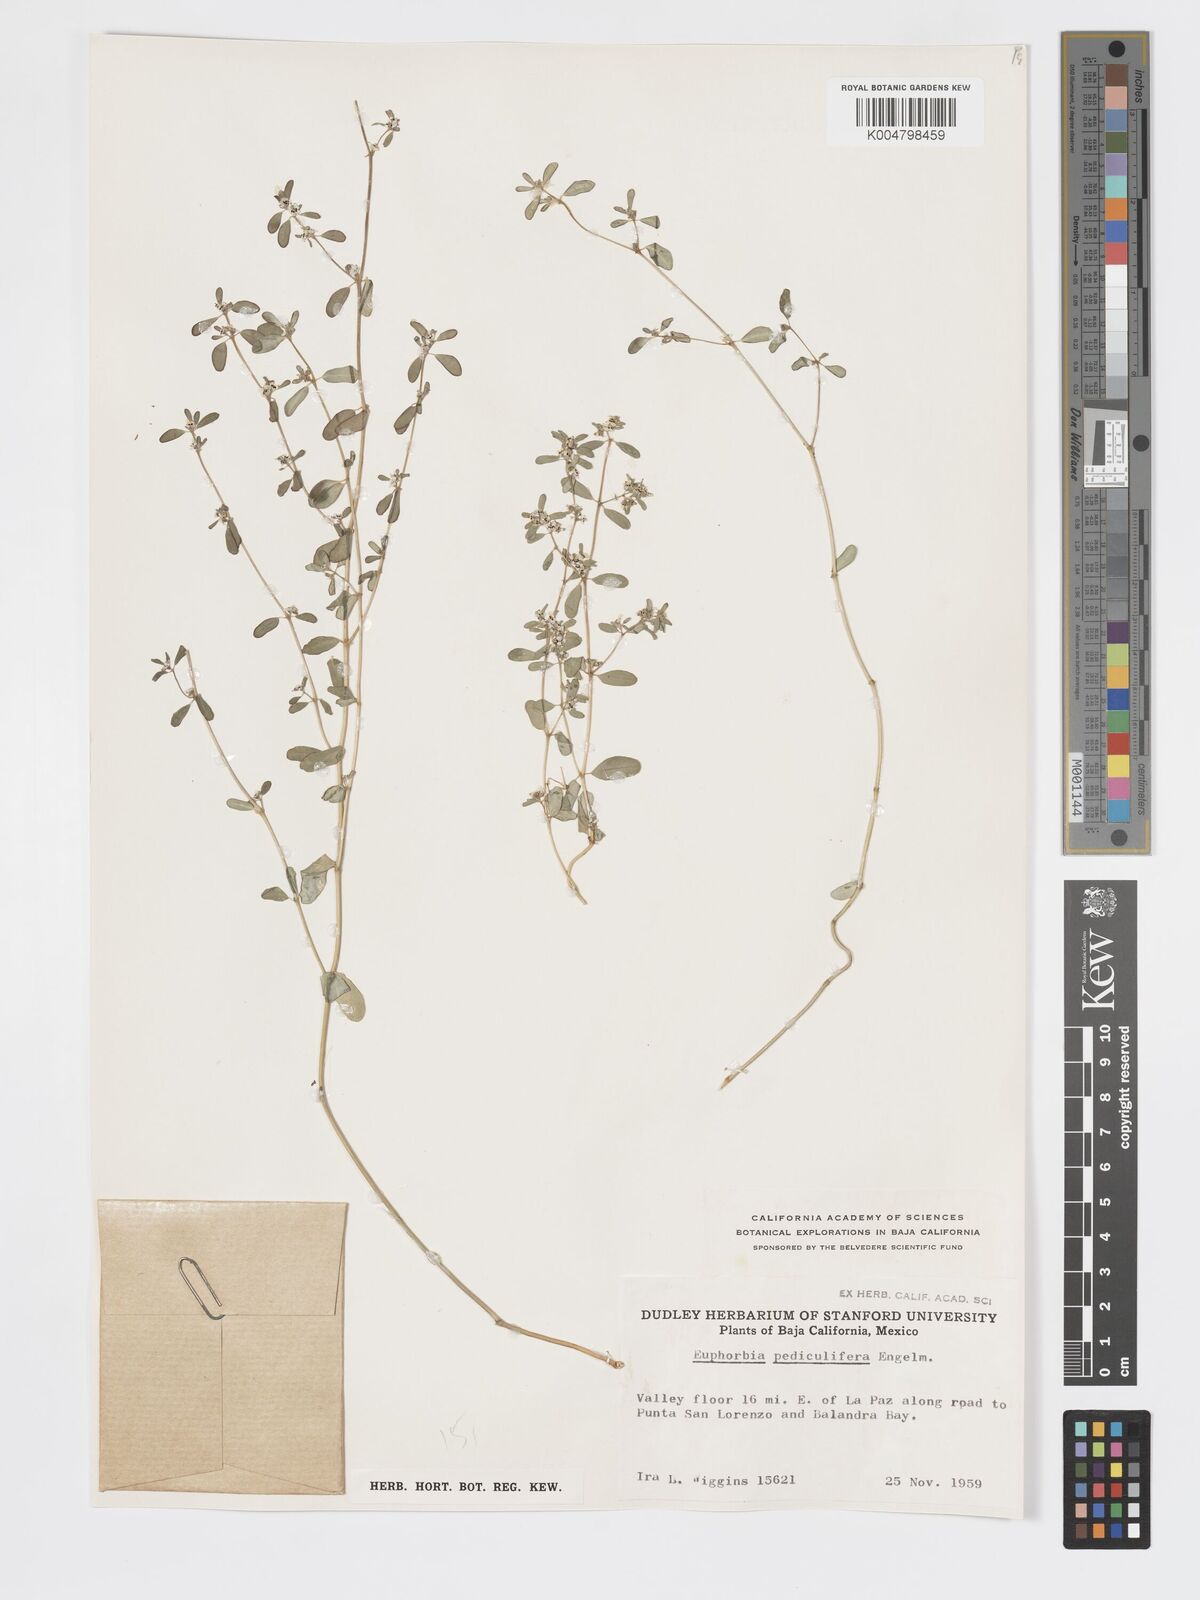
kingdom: Plantae
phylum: Tracheophyta
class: Magnoliopsida
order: Malpighiales
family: Euphorbiaceae
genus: Euphorbia
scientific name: Euphorbia pediculifera
